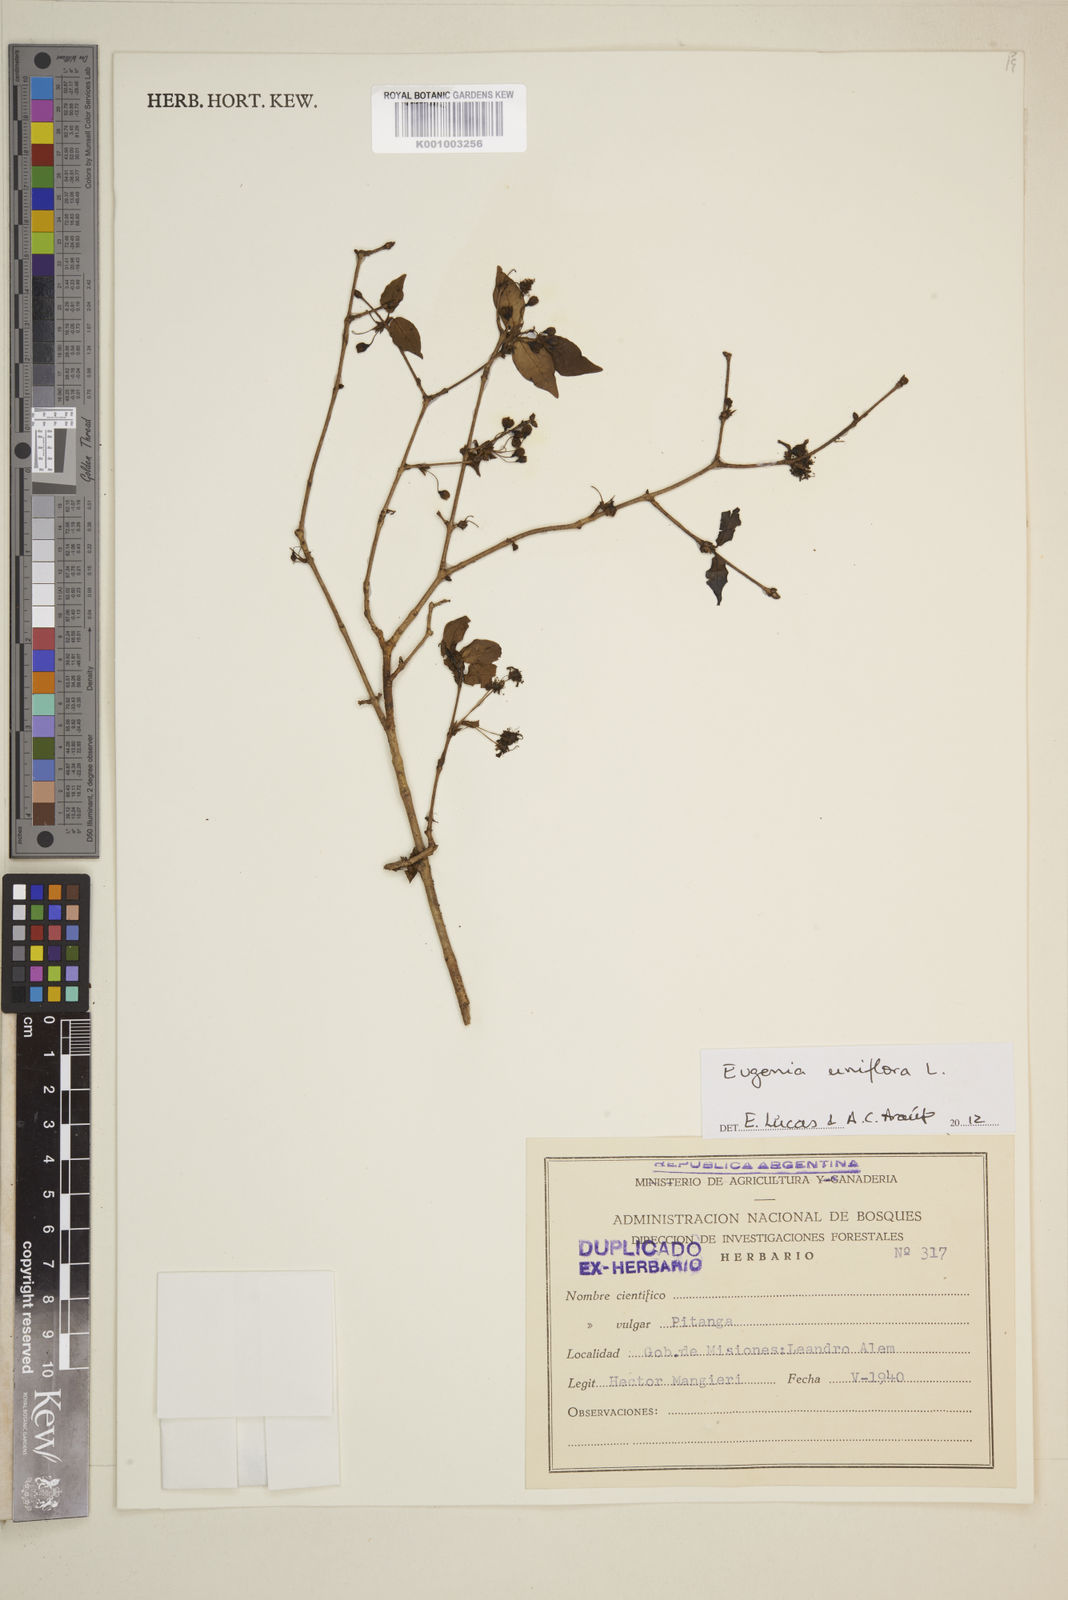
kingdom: Plantae
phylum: Tracheophyta
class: Magnoliopsida
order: Myrtales
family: Myrtaceae
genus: Eugenia
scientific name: Eugenia uniflora
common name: Surinam cherry
